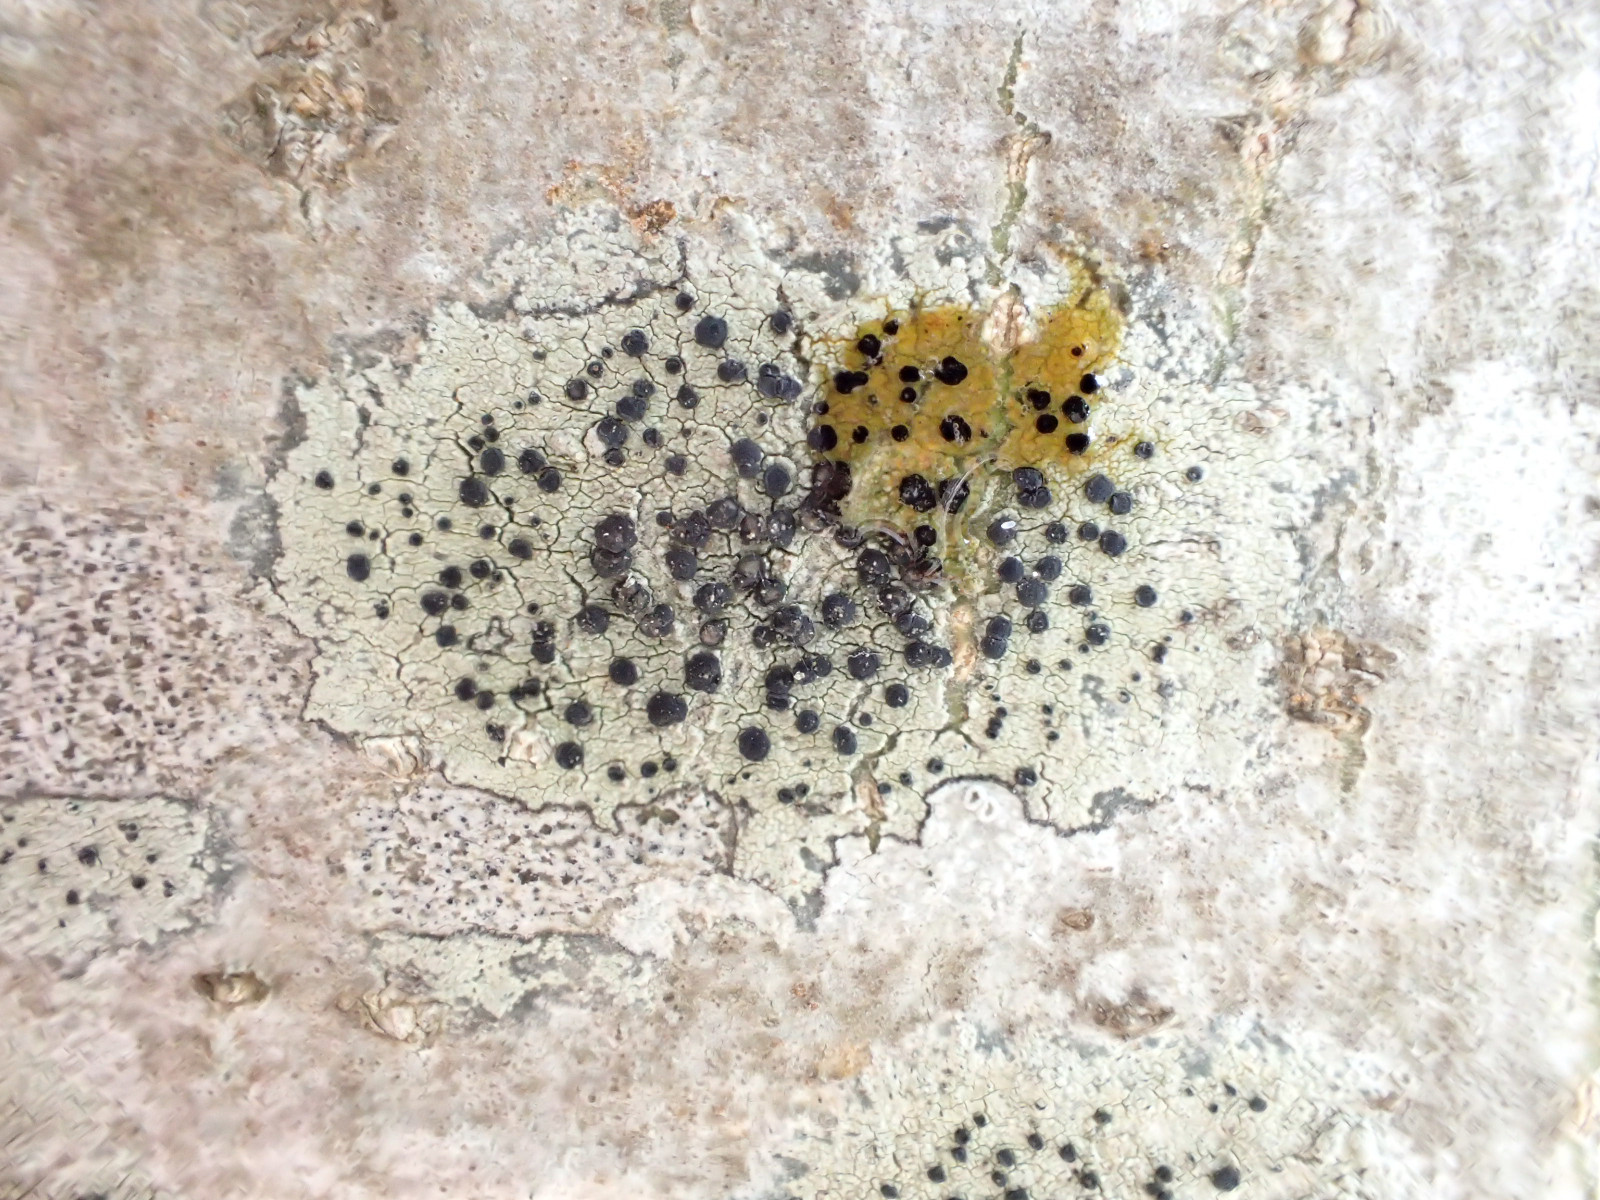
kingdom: Fungi
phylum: Ascomycota
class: Lecanoromycetes
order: Lecanorales
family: Lecanoraceae
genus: Lecidella
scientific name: Lecidella elaeochroma
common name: grågrøn skivelav
